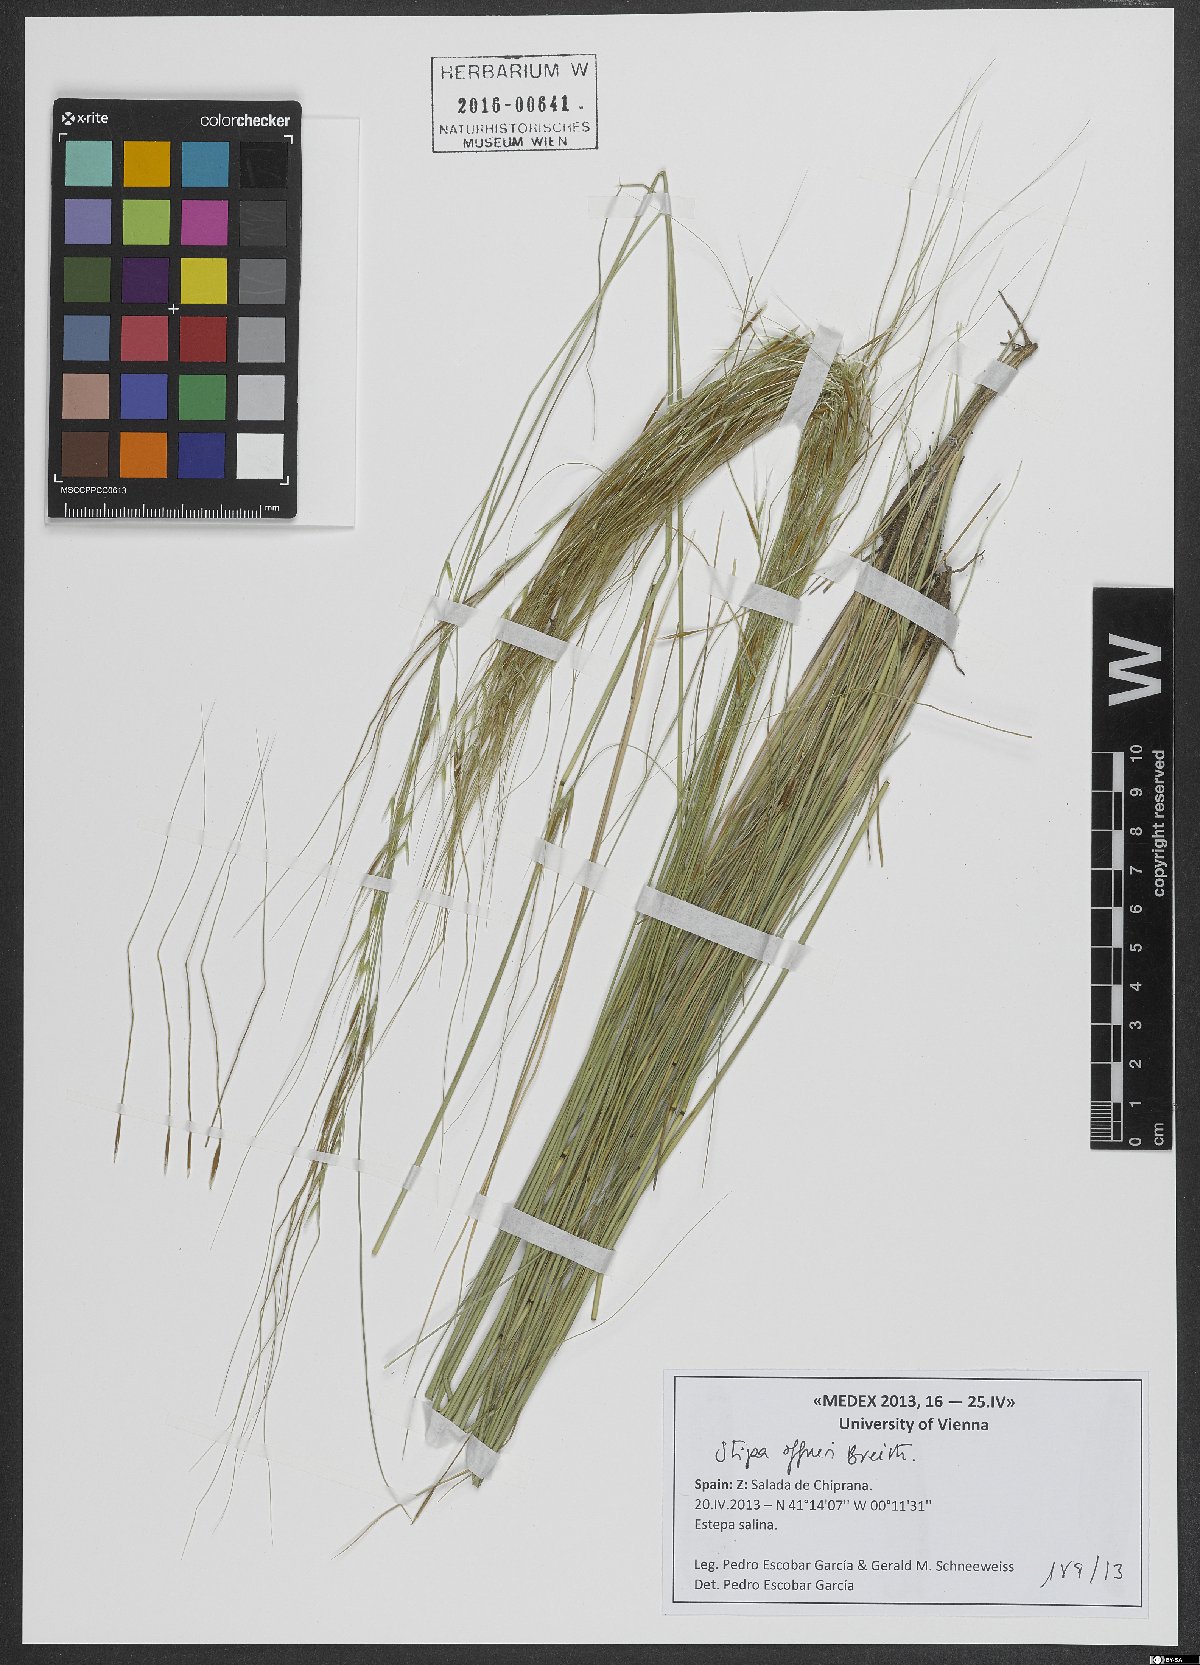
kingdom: Plantae
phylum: Tracheophyta
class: Liliopsida
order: Poales
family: Poaceae
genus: Stipa
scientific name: Stipa offneri
